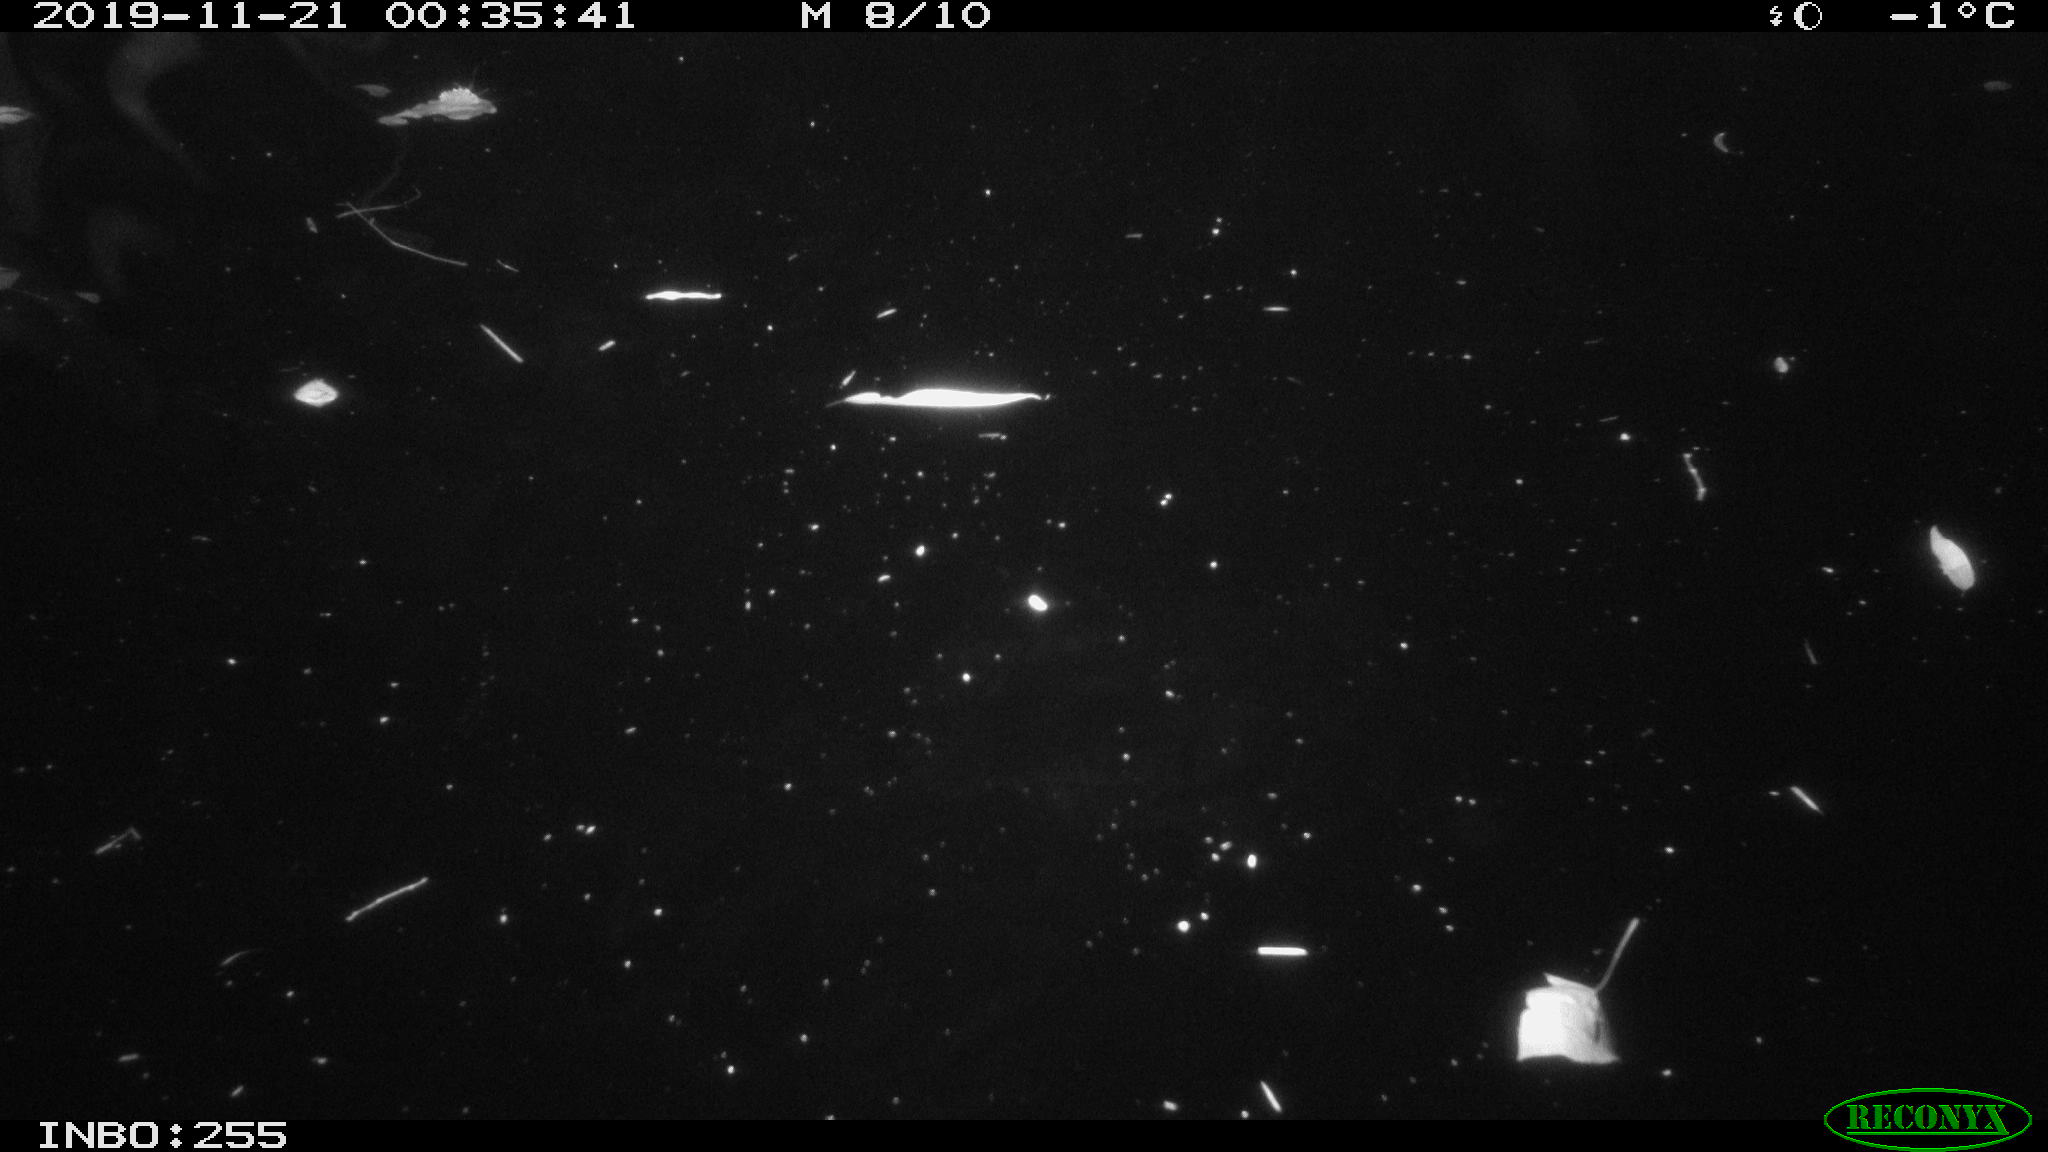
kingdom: Animalia
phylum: Chordata
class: Mammalia
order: Rodentia
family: Cricetidae
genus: Ondatra
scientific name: Ondatra zibethicus
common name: Muskrat
